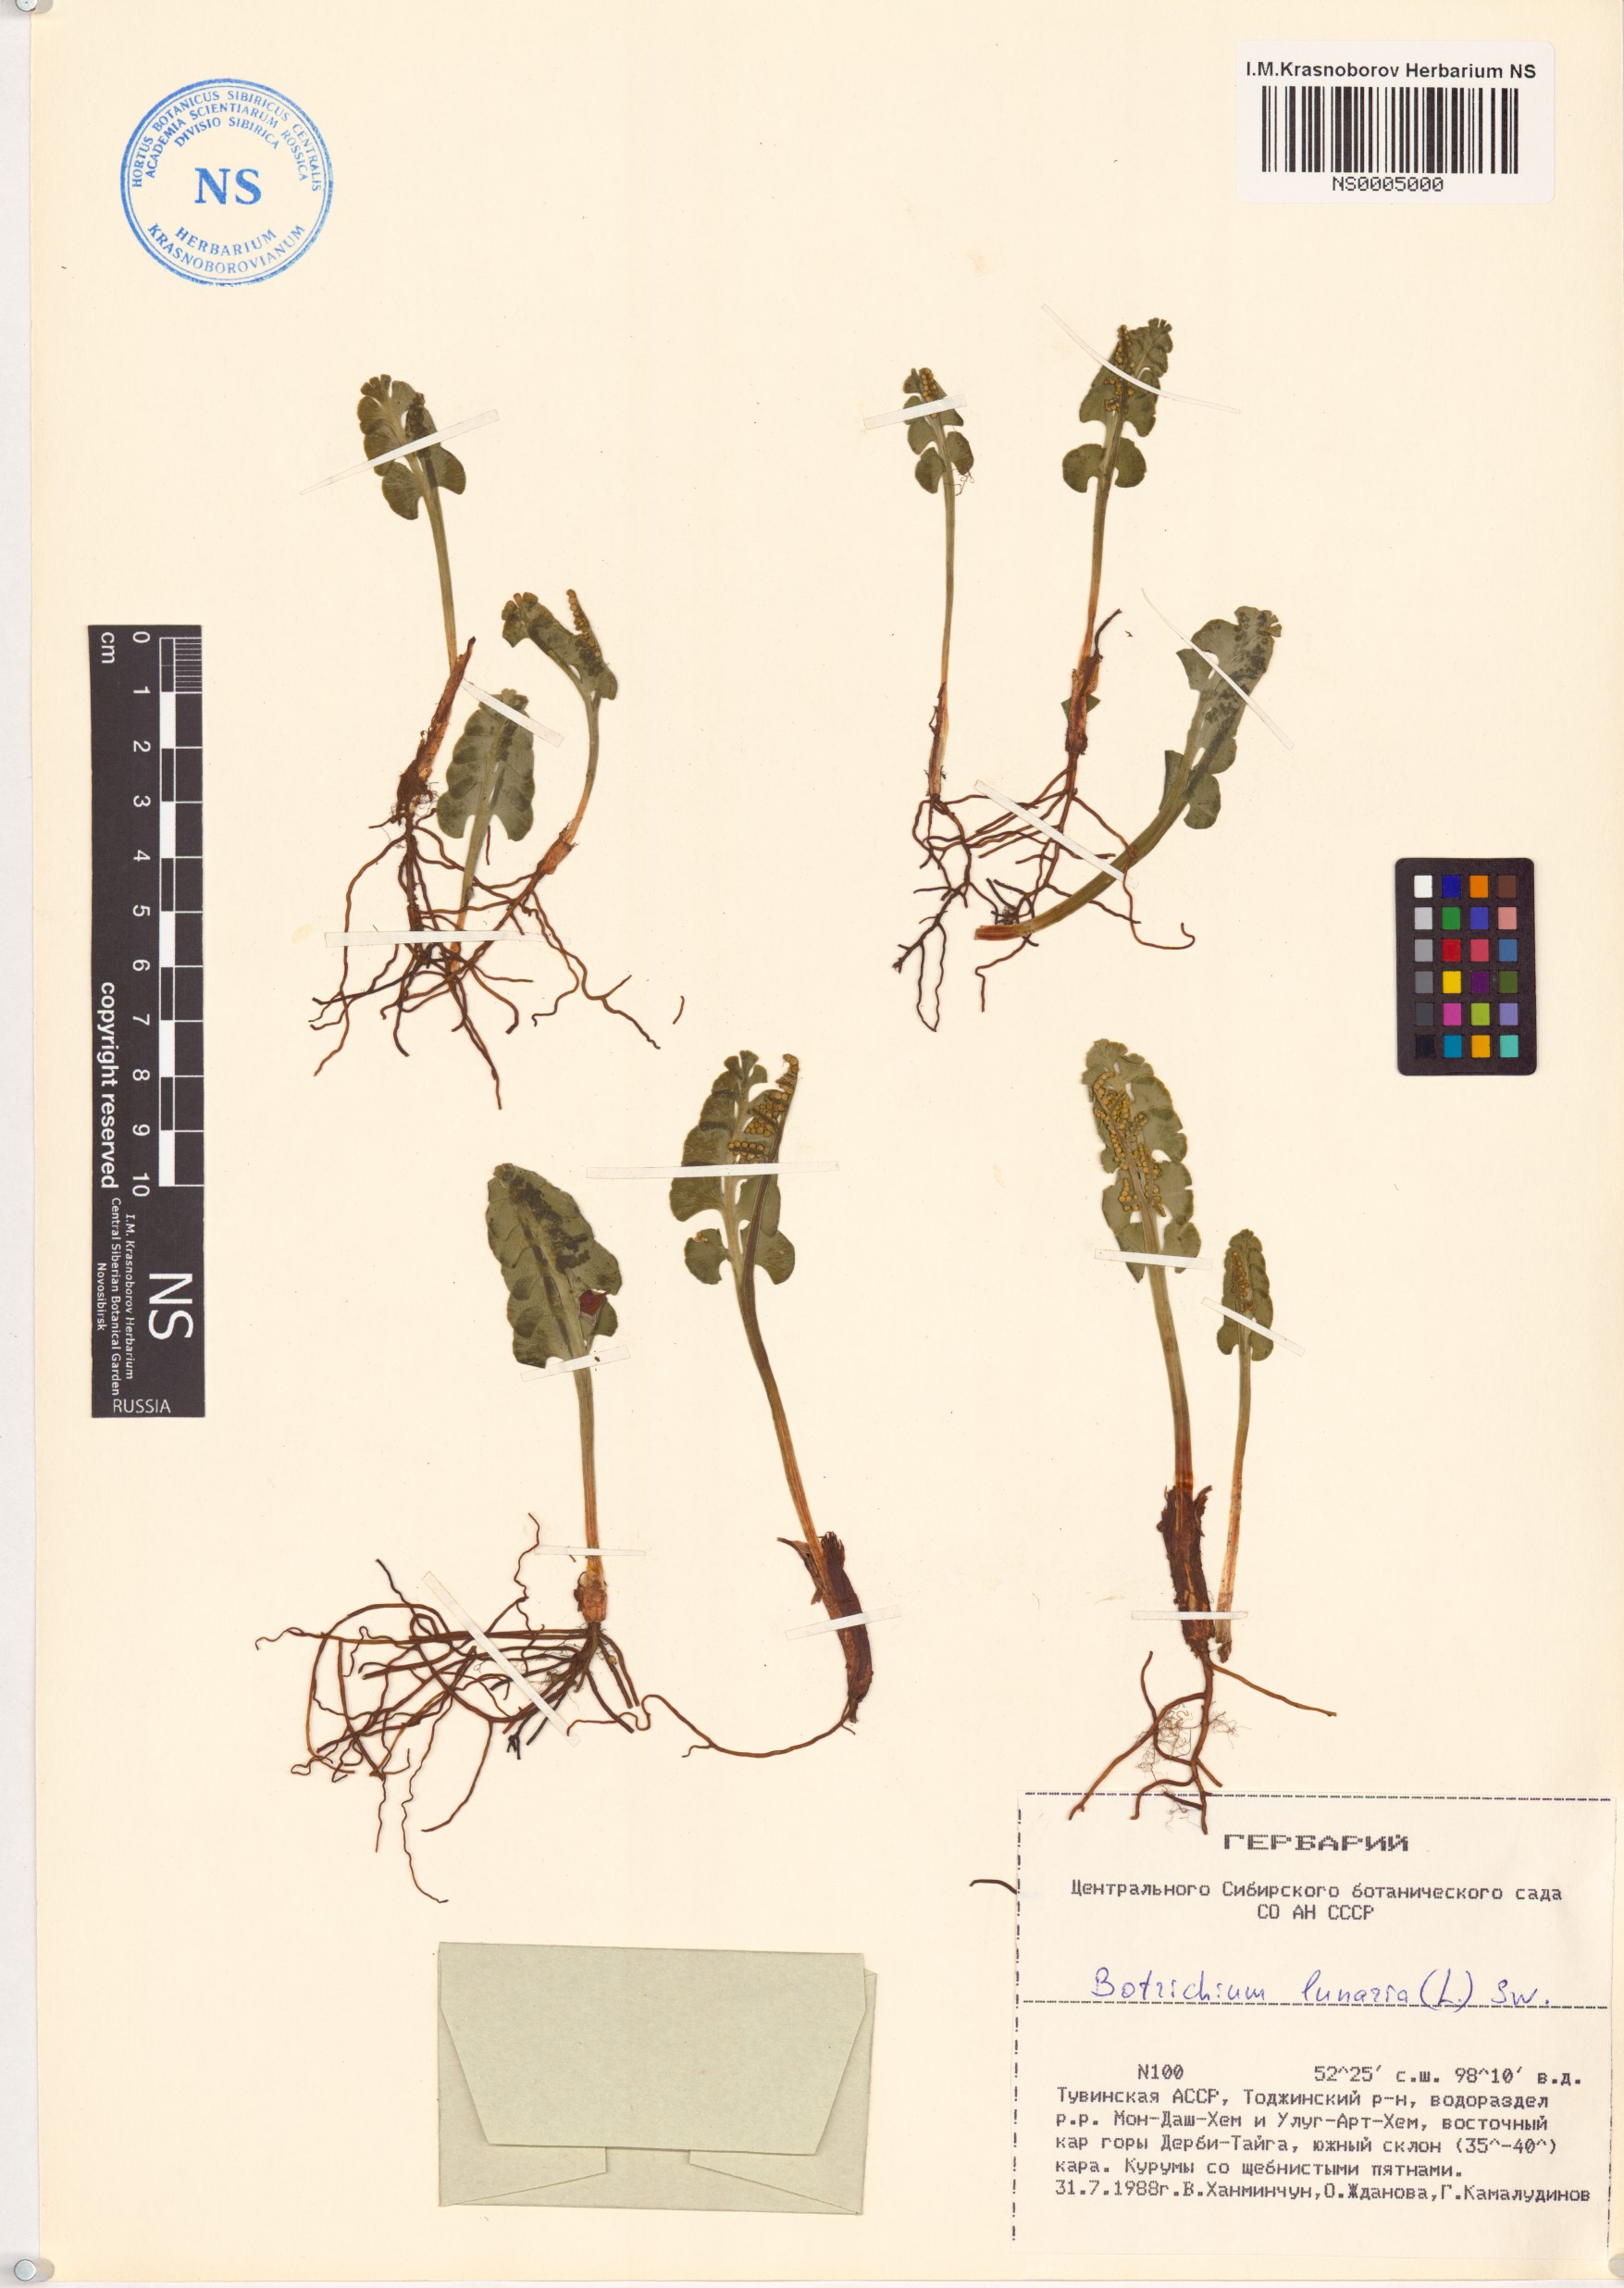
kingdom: Plantae
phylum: Tracheophyta
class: Polypodiopsida
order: Ophioglossales
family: Ophioglossaceae
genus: Botrychium
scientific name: Botrychium lunaria
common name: Moonwort
